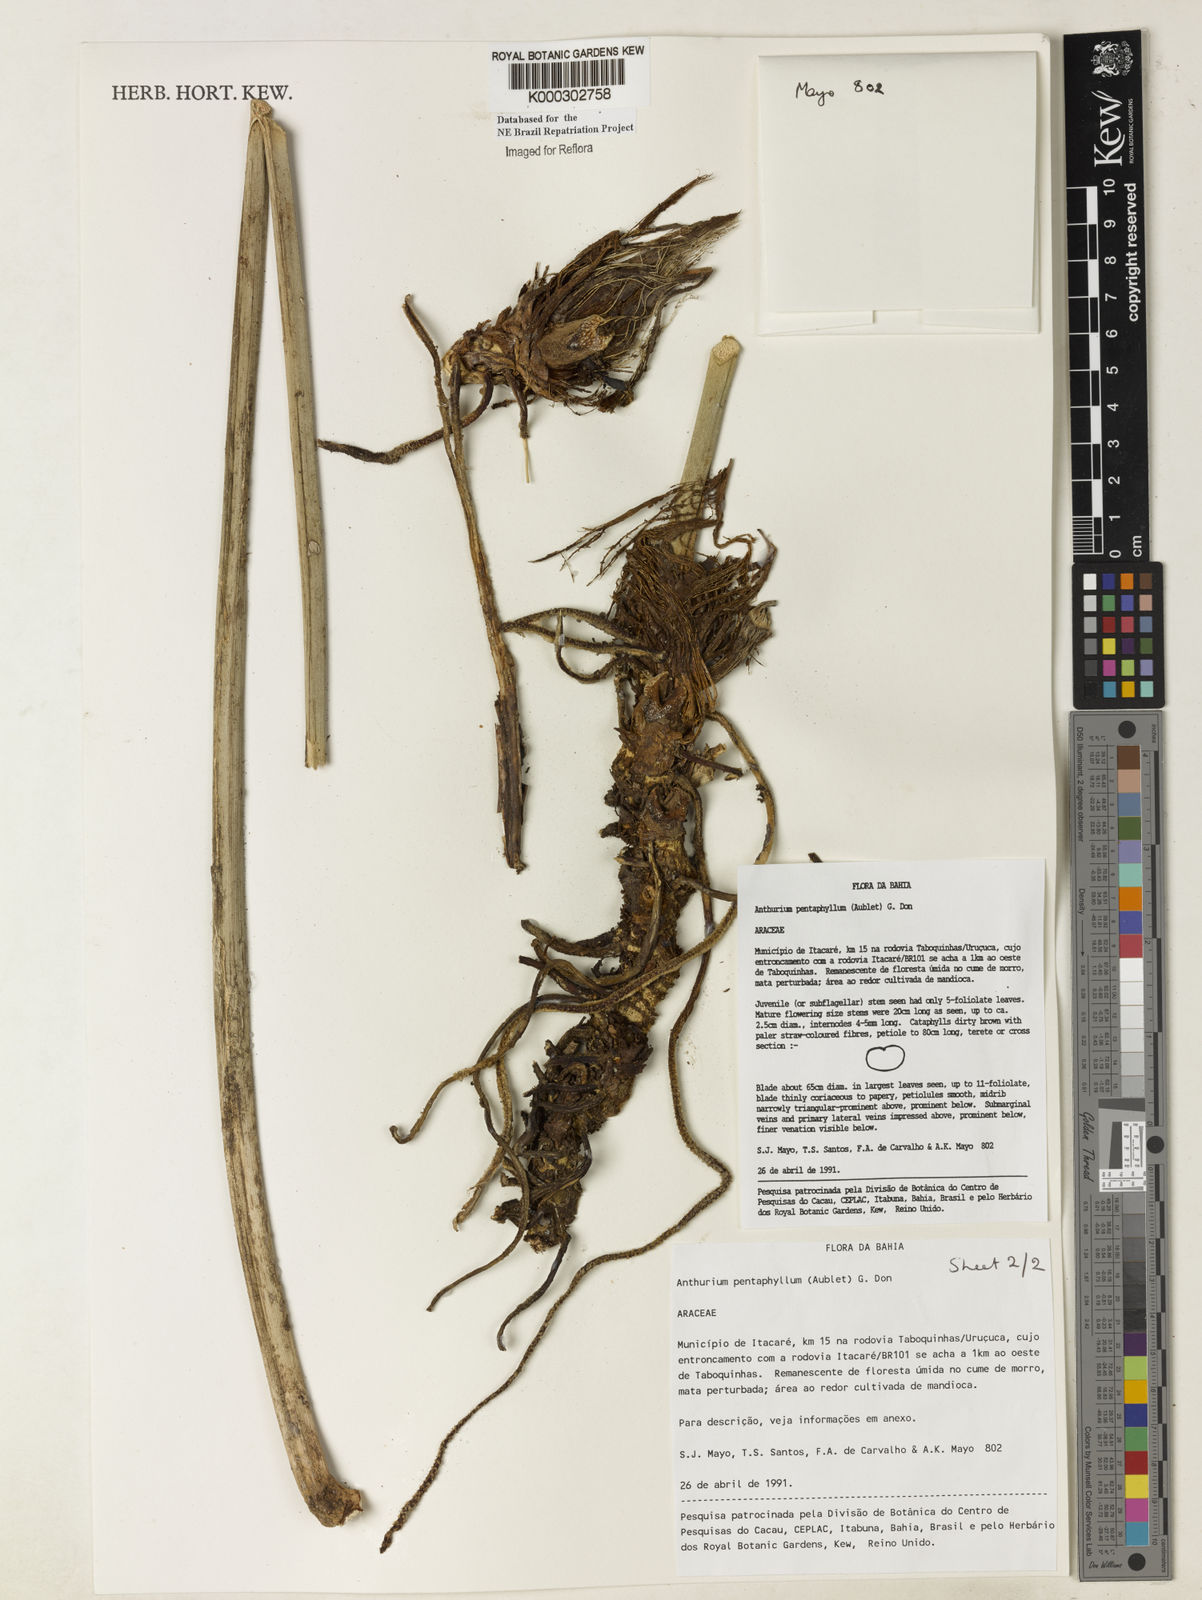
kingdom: Plantae
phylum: Tracheophyta
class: Liliopsida
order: Alismatales
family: Araceae
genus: Anthurium
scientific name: Anthurium pentaphyllum
